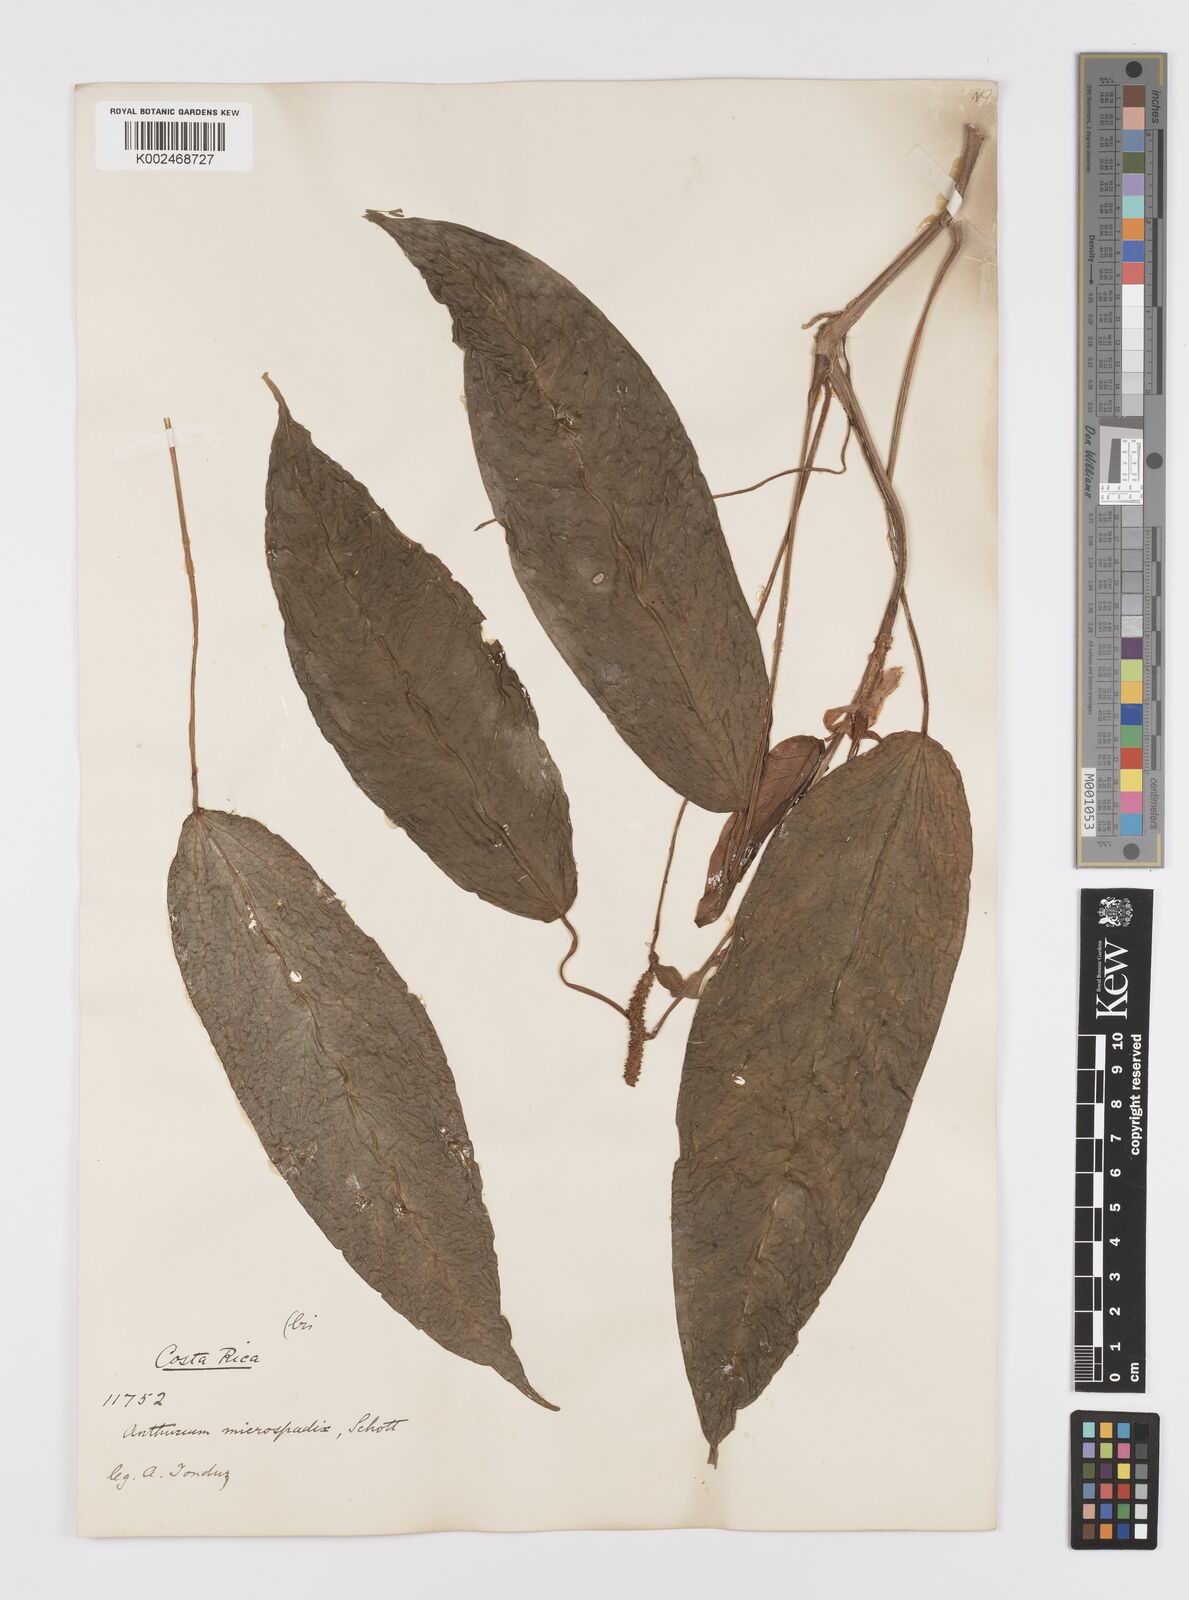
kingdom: Plantae
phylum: Tracheophyta
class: Liliopsida
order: Alismatales
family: Araceae
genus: Anthurium
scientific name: Anthurium microspadix
